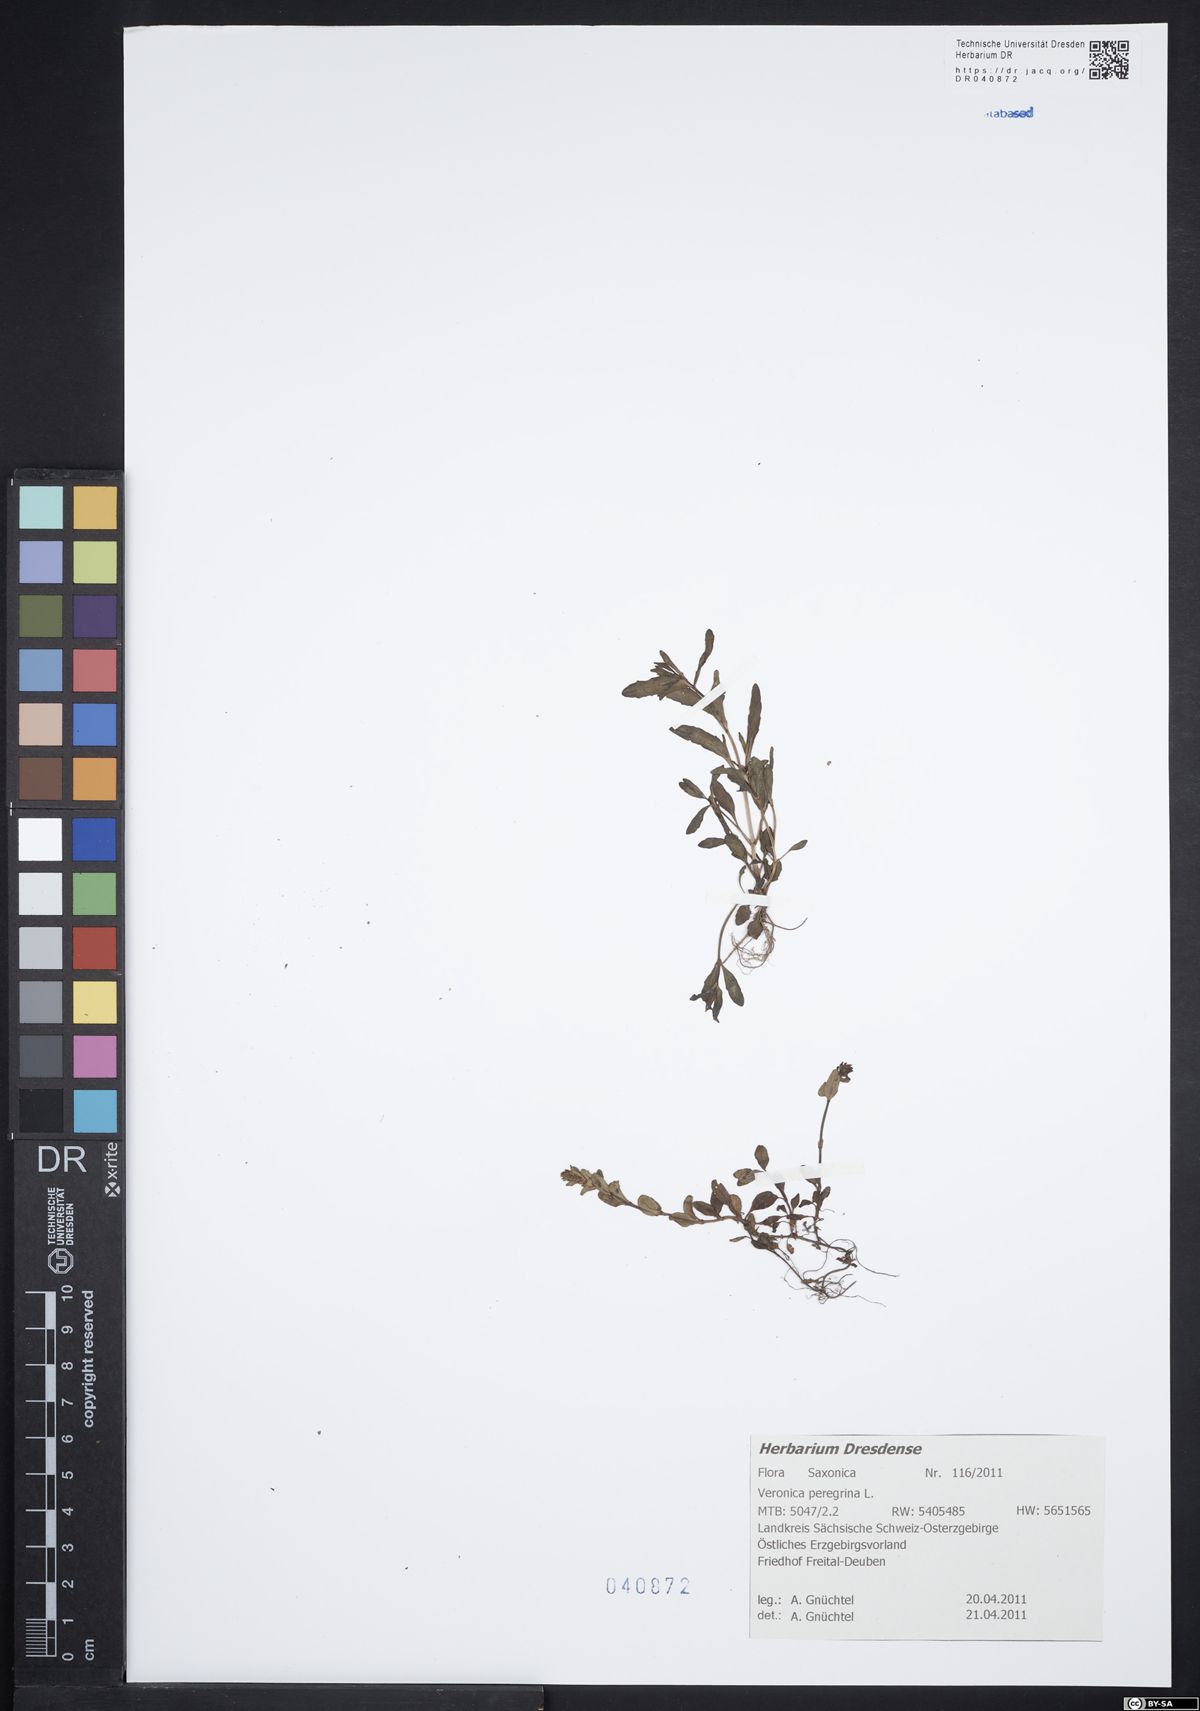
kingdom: Plantae
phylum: Tracheophyta
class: Magnoliopsida
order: Lamiales
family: Plantaginaceae
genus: Veronica
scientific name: Veronica peregrina
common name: Neckweed
